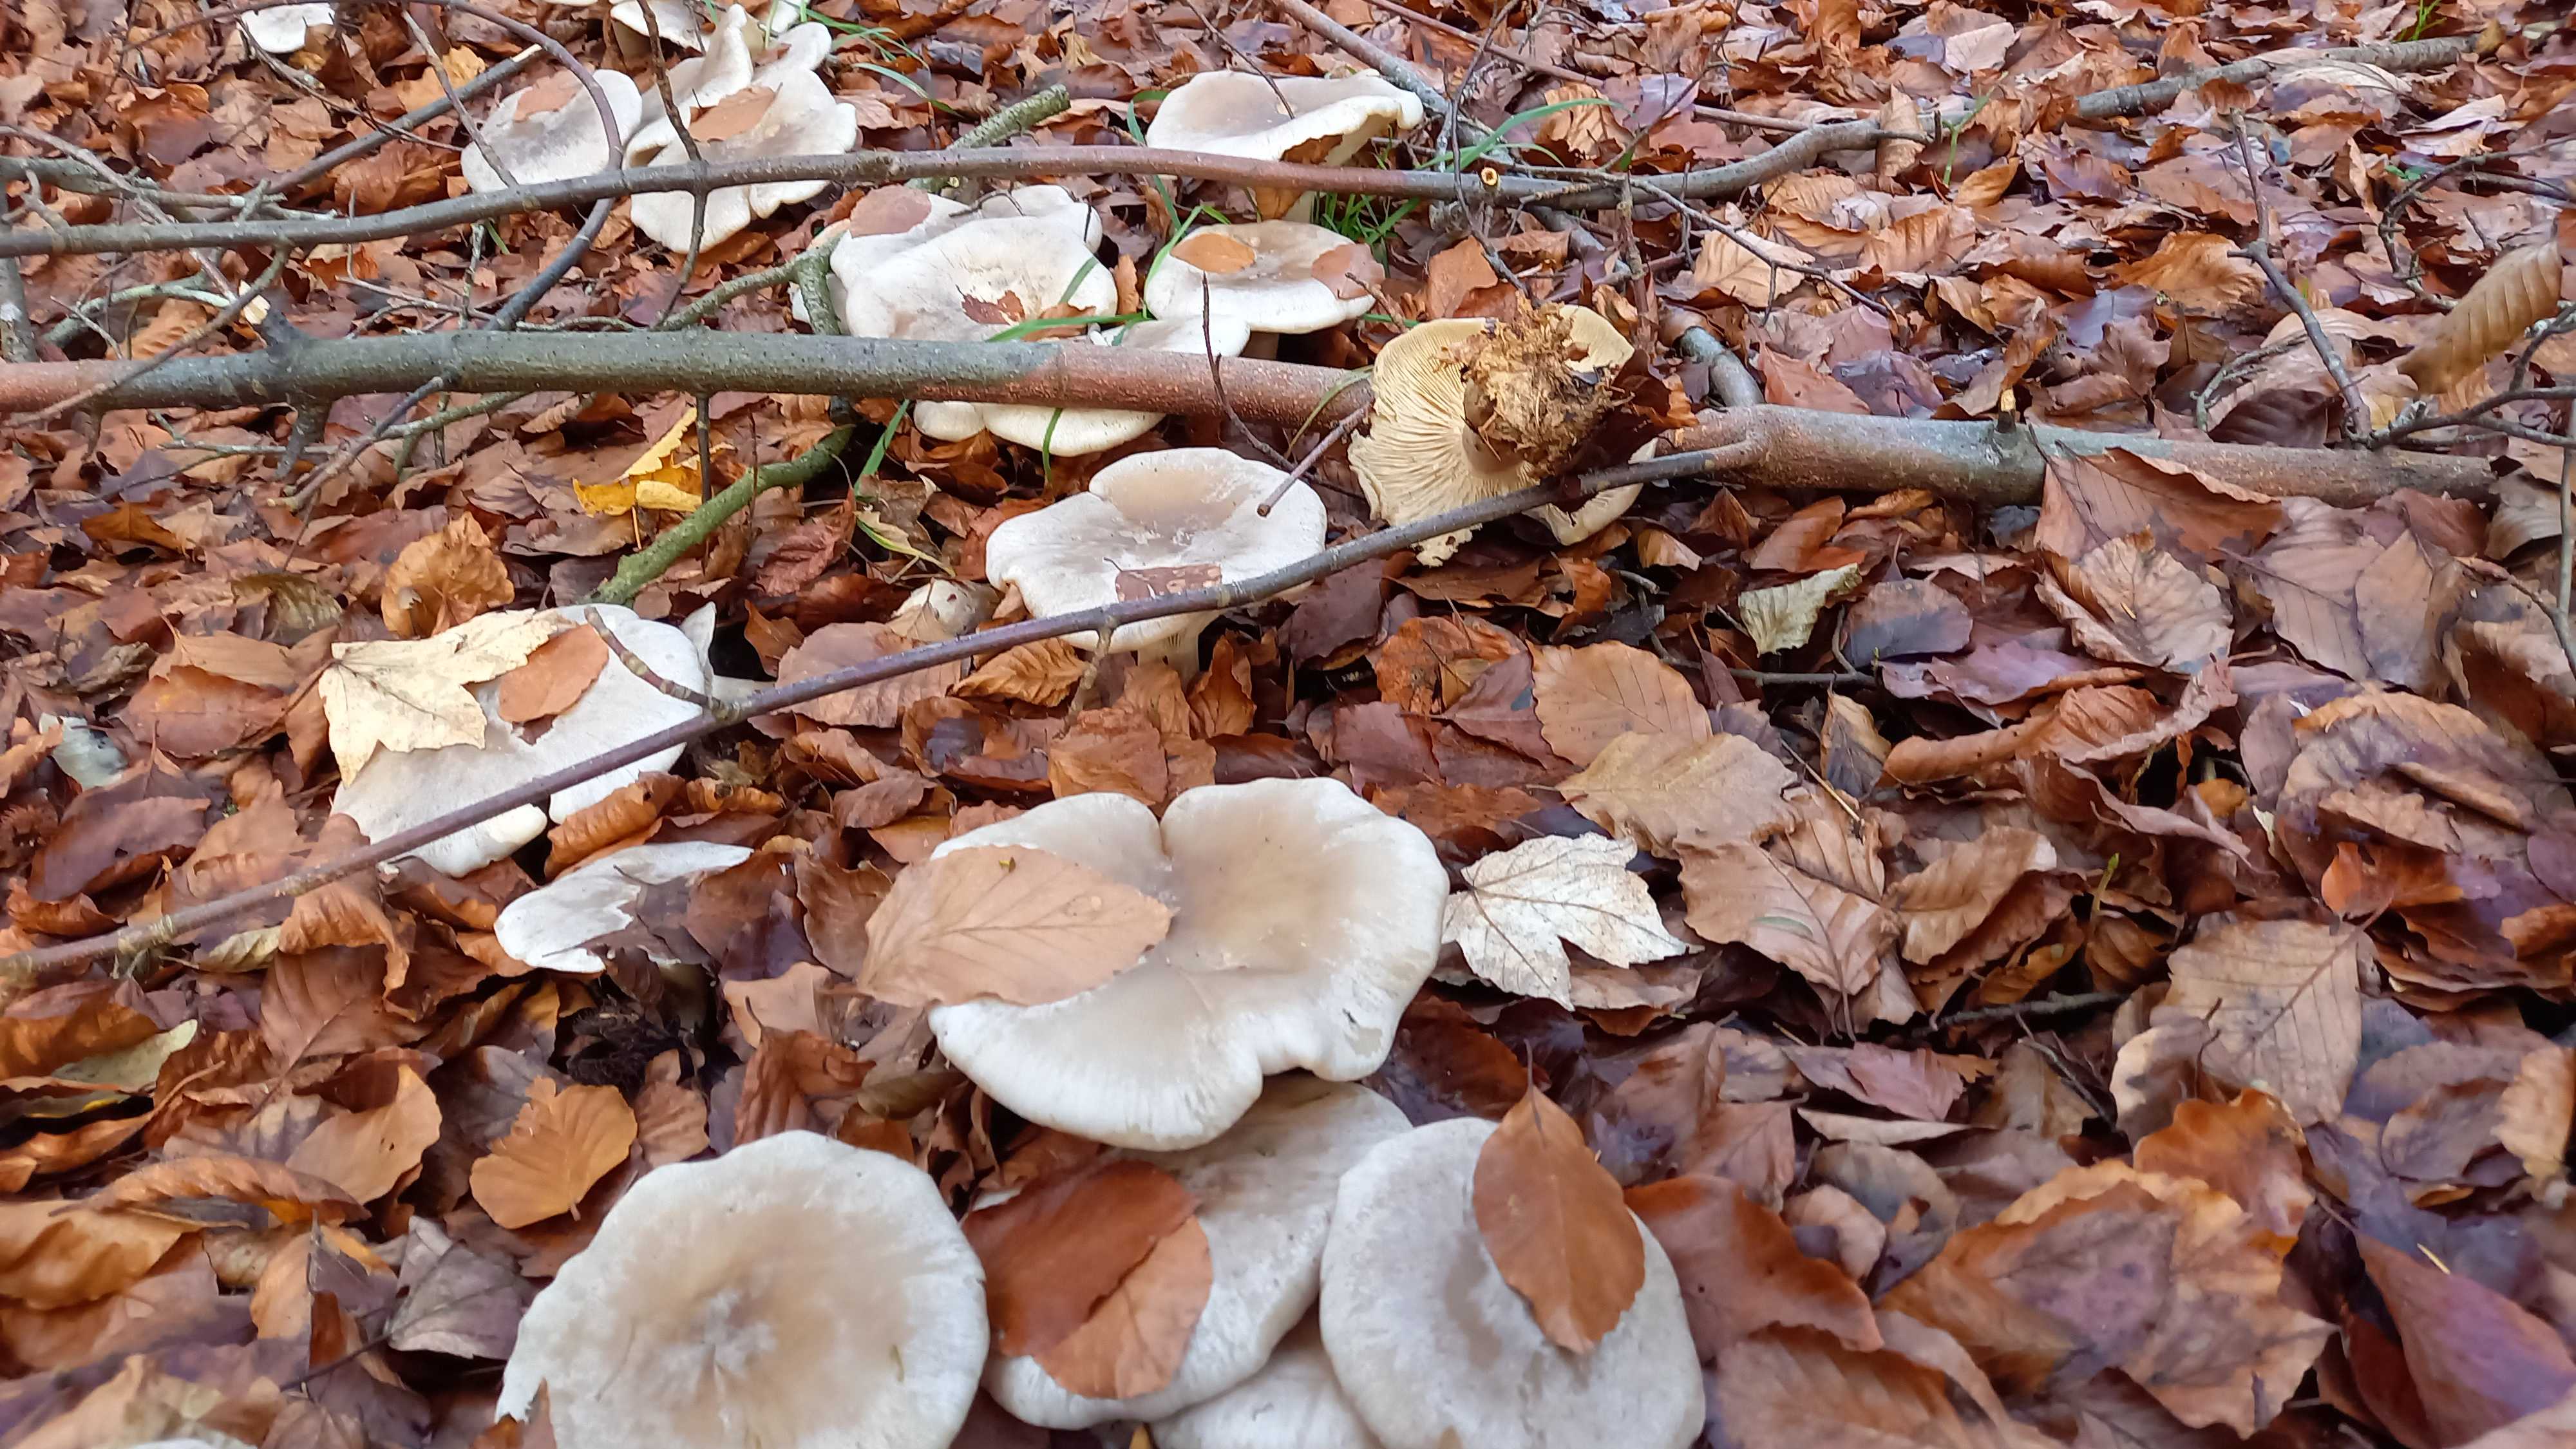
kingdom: Fungi
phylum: Basidiomycota
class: Agaricomycetes
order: Agaricales
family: Tricholomataceae
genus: Clitocybe
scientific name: Clitocybe nebularis
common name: tåge-tragthat
